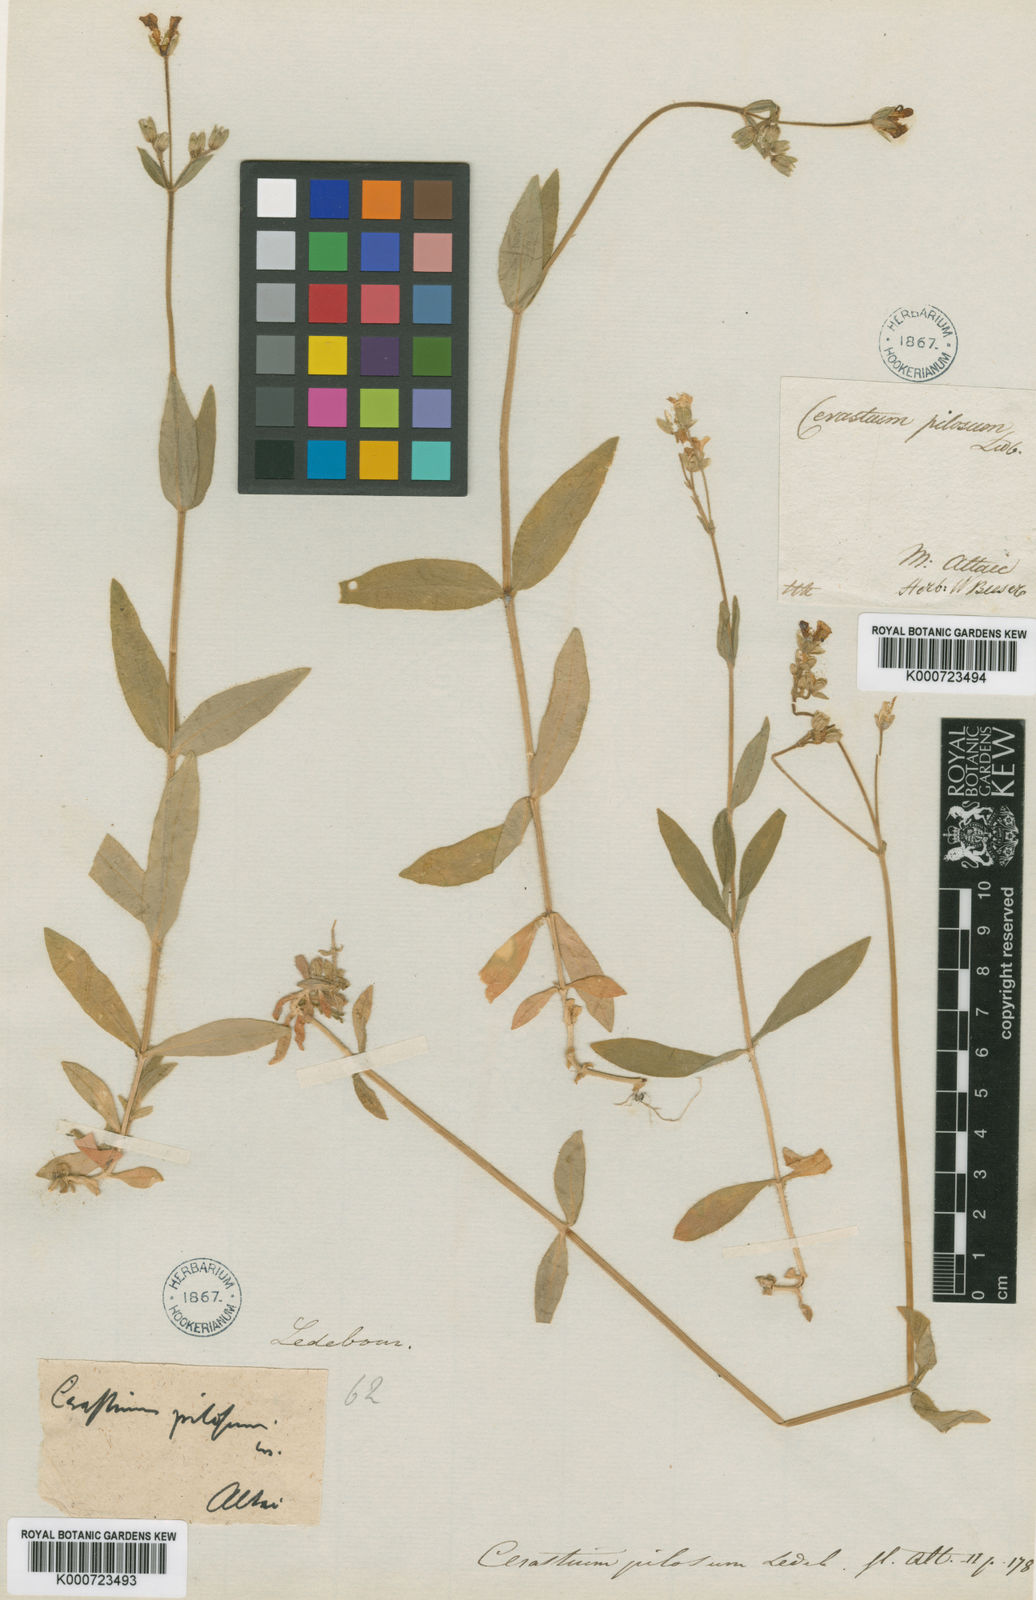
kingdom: Plantae
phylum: Tracheophyta
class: Magnoliopsida
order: Caryophyllales
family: Caryophyllaceae
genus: Cerastium
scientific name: Cerastium
